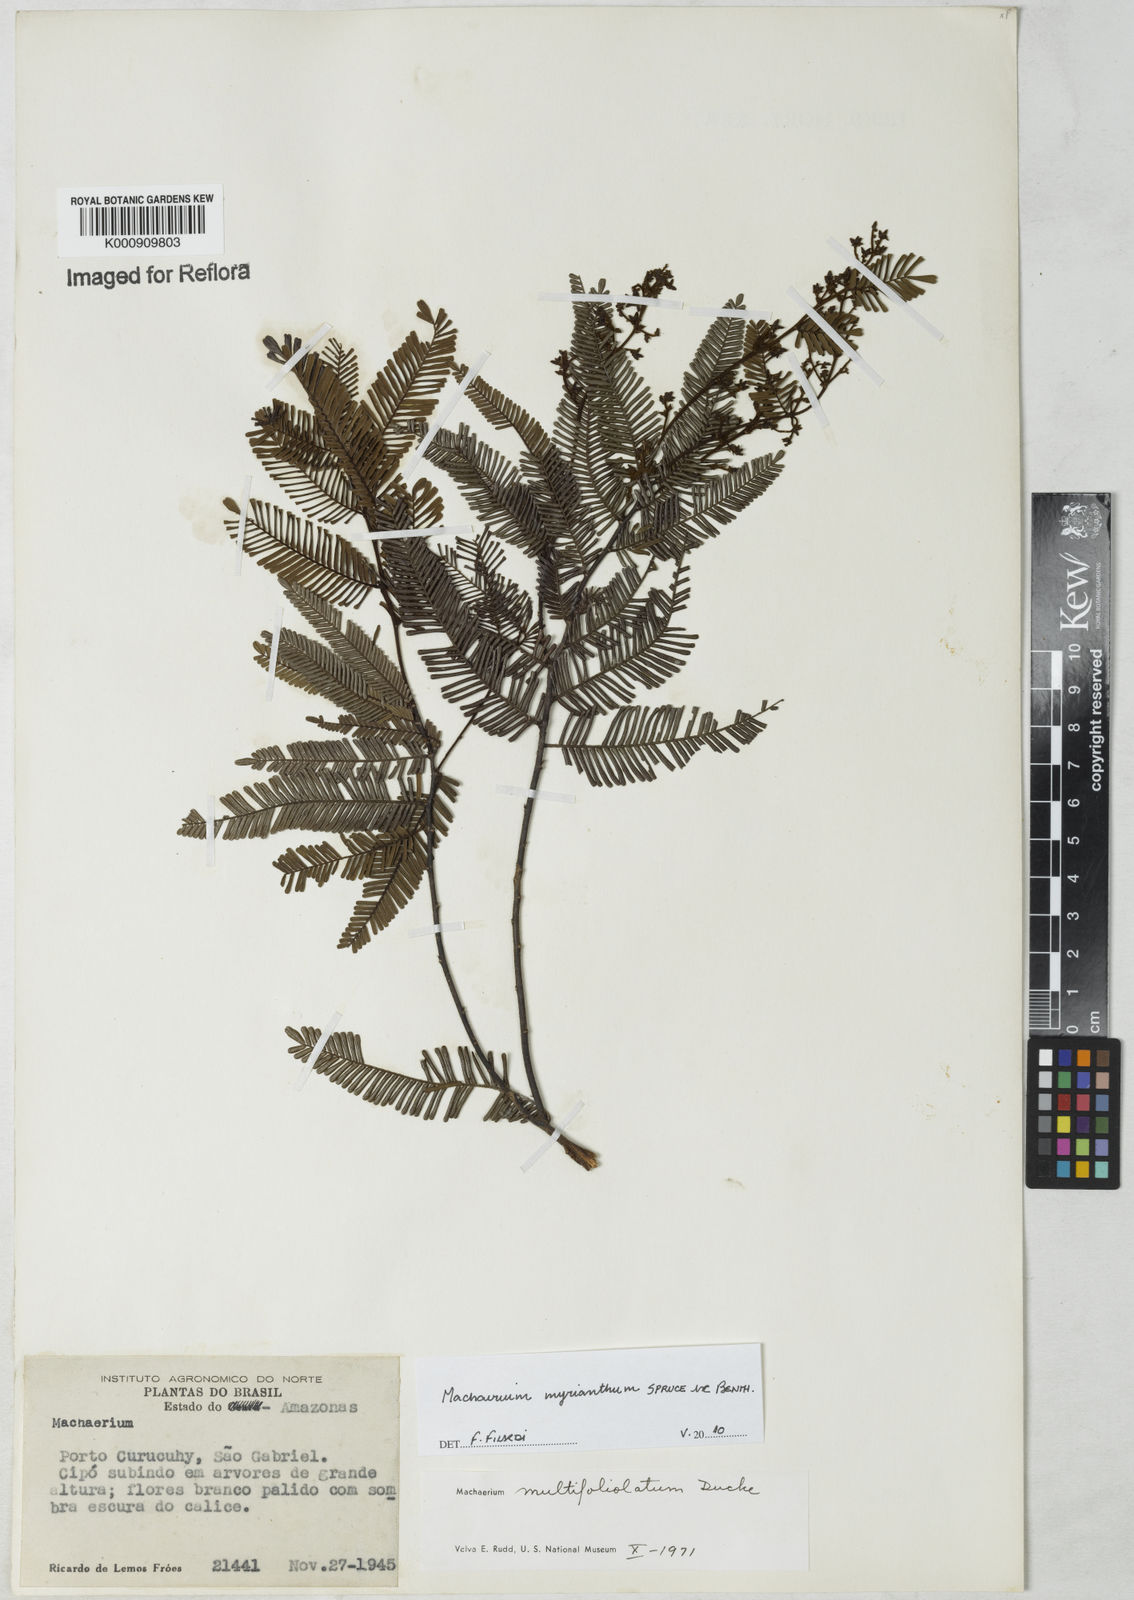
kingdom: Plantae
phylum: Tracheophyta
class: Magnoliopsida
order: Fabales
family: Fabaceae
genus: Machaerium
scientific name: Machaerium multifoliolatum
